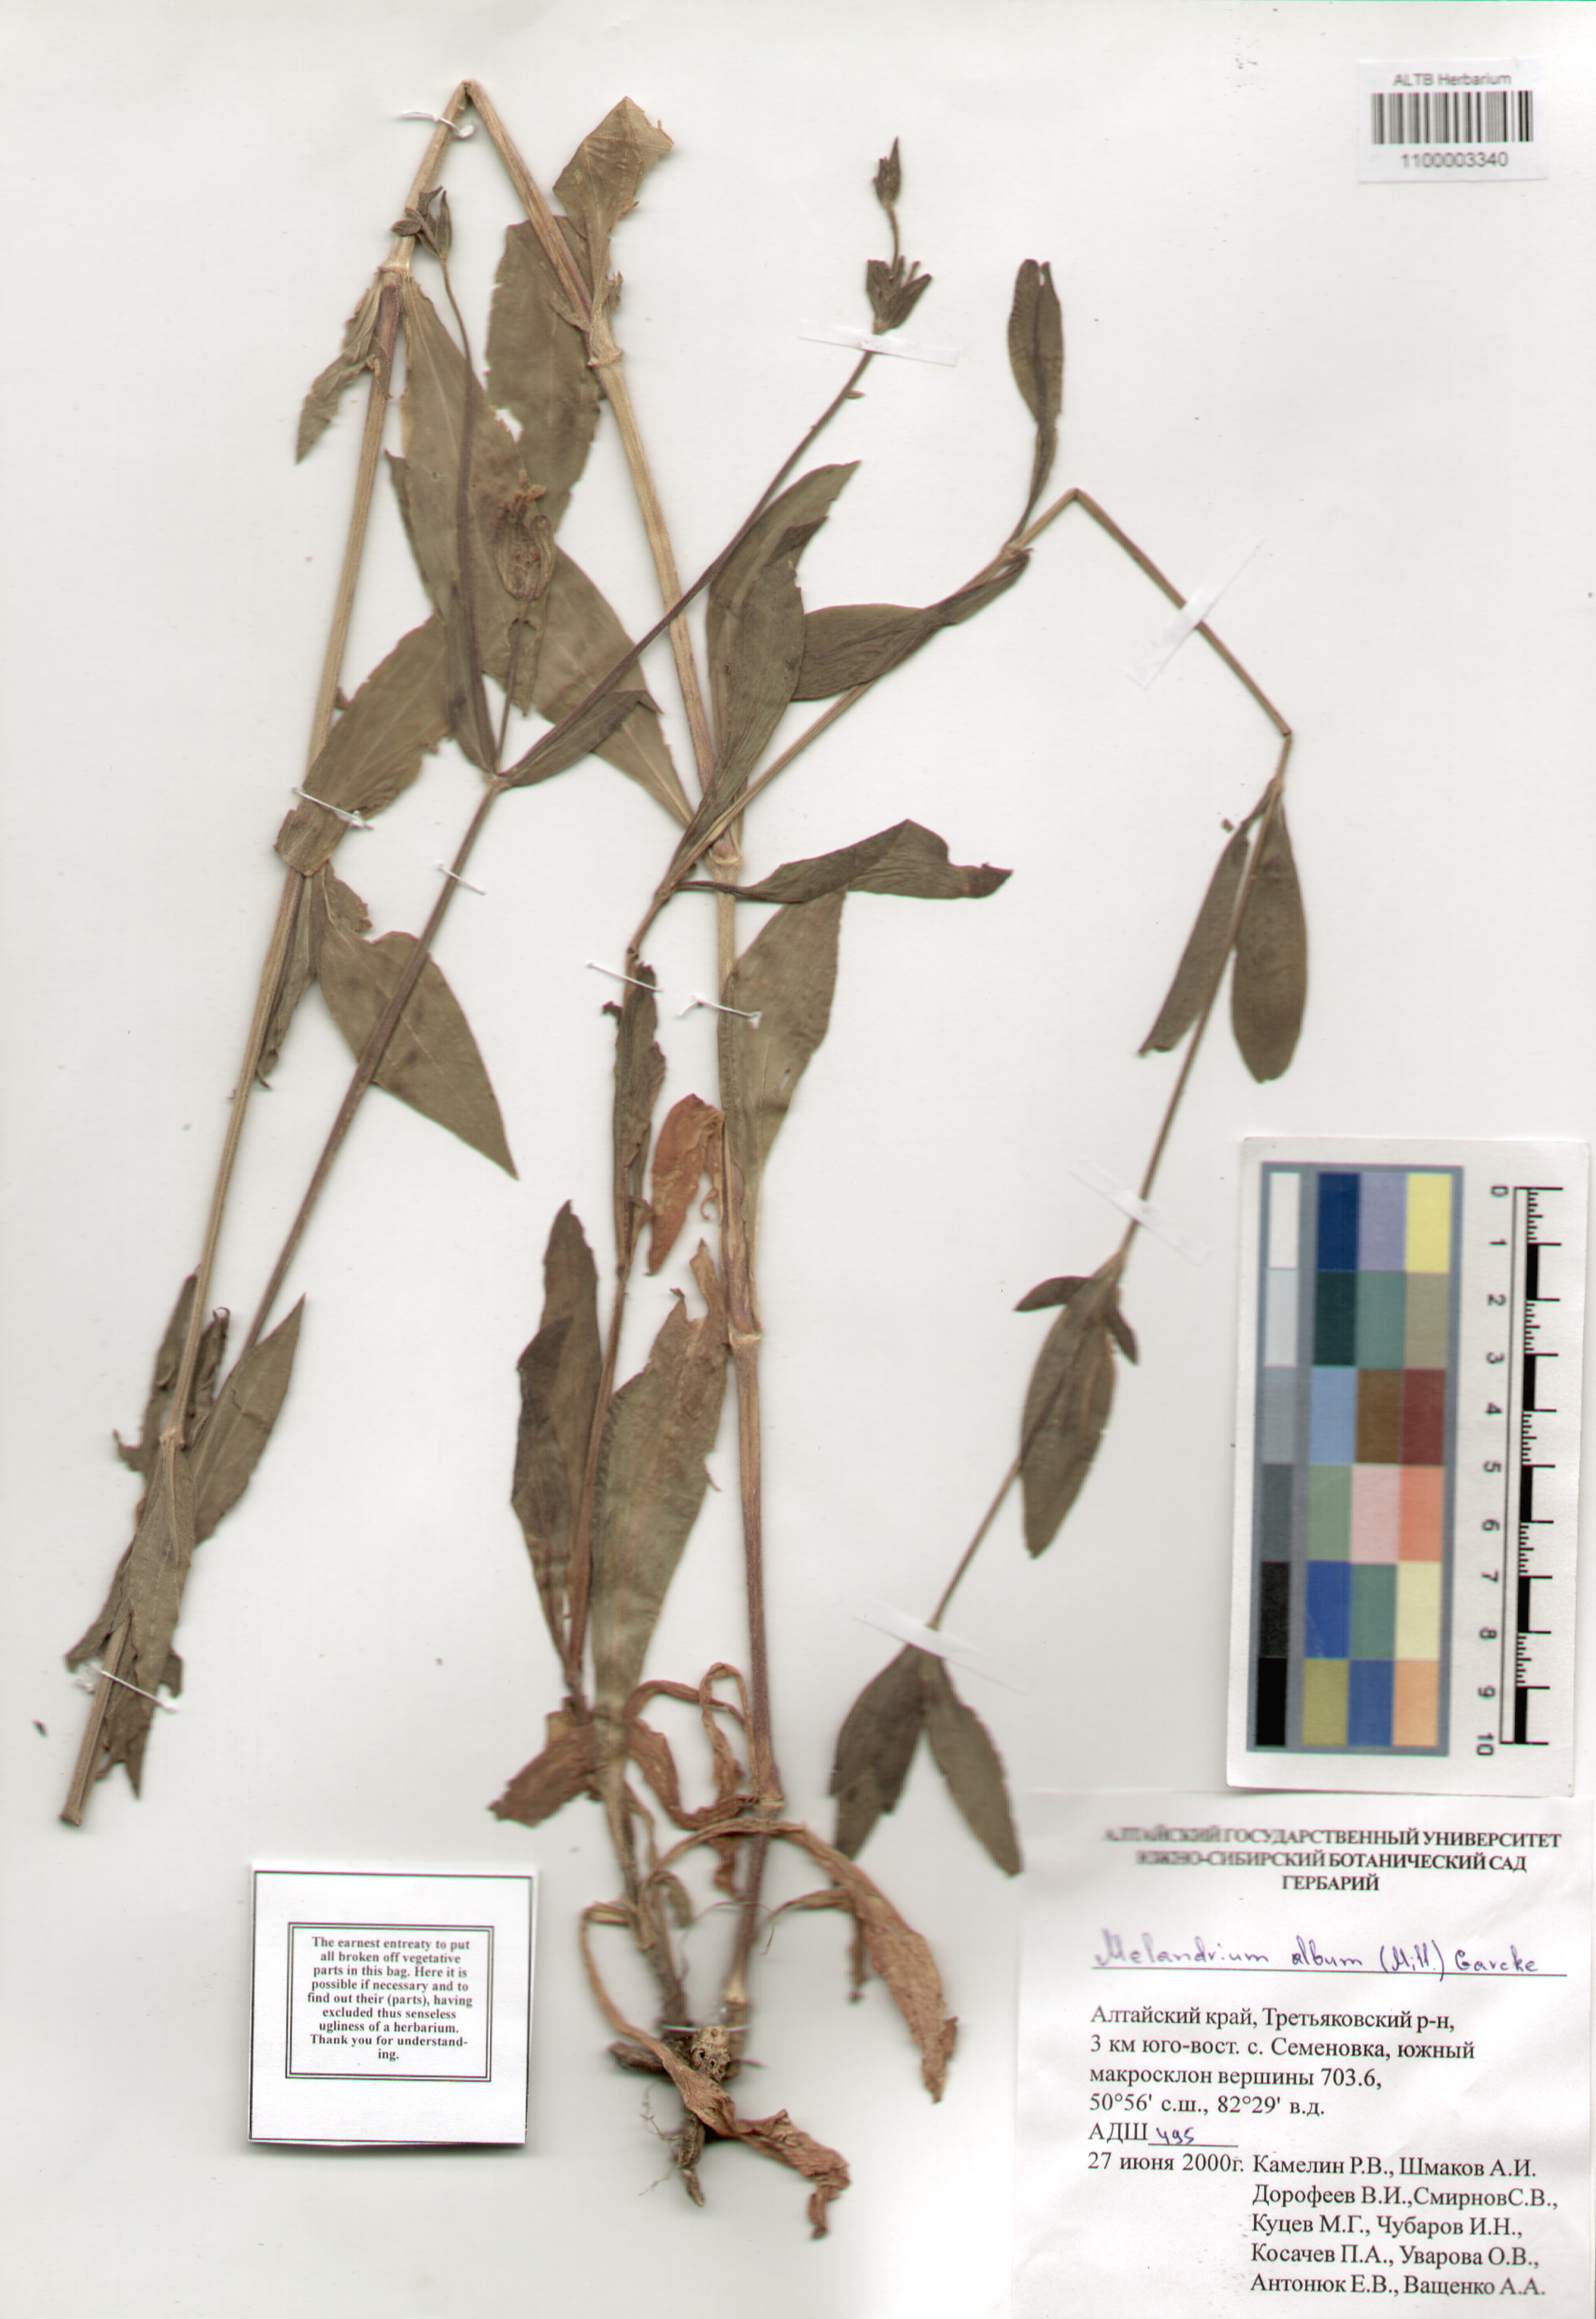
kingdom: Plantae
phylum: Tracheophyta
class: Magnoliopsida
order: Caryophyllales
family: Caryophyllaceae
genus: Silene
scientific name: Silene latifolia
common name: White campion
